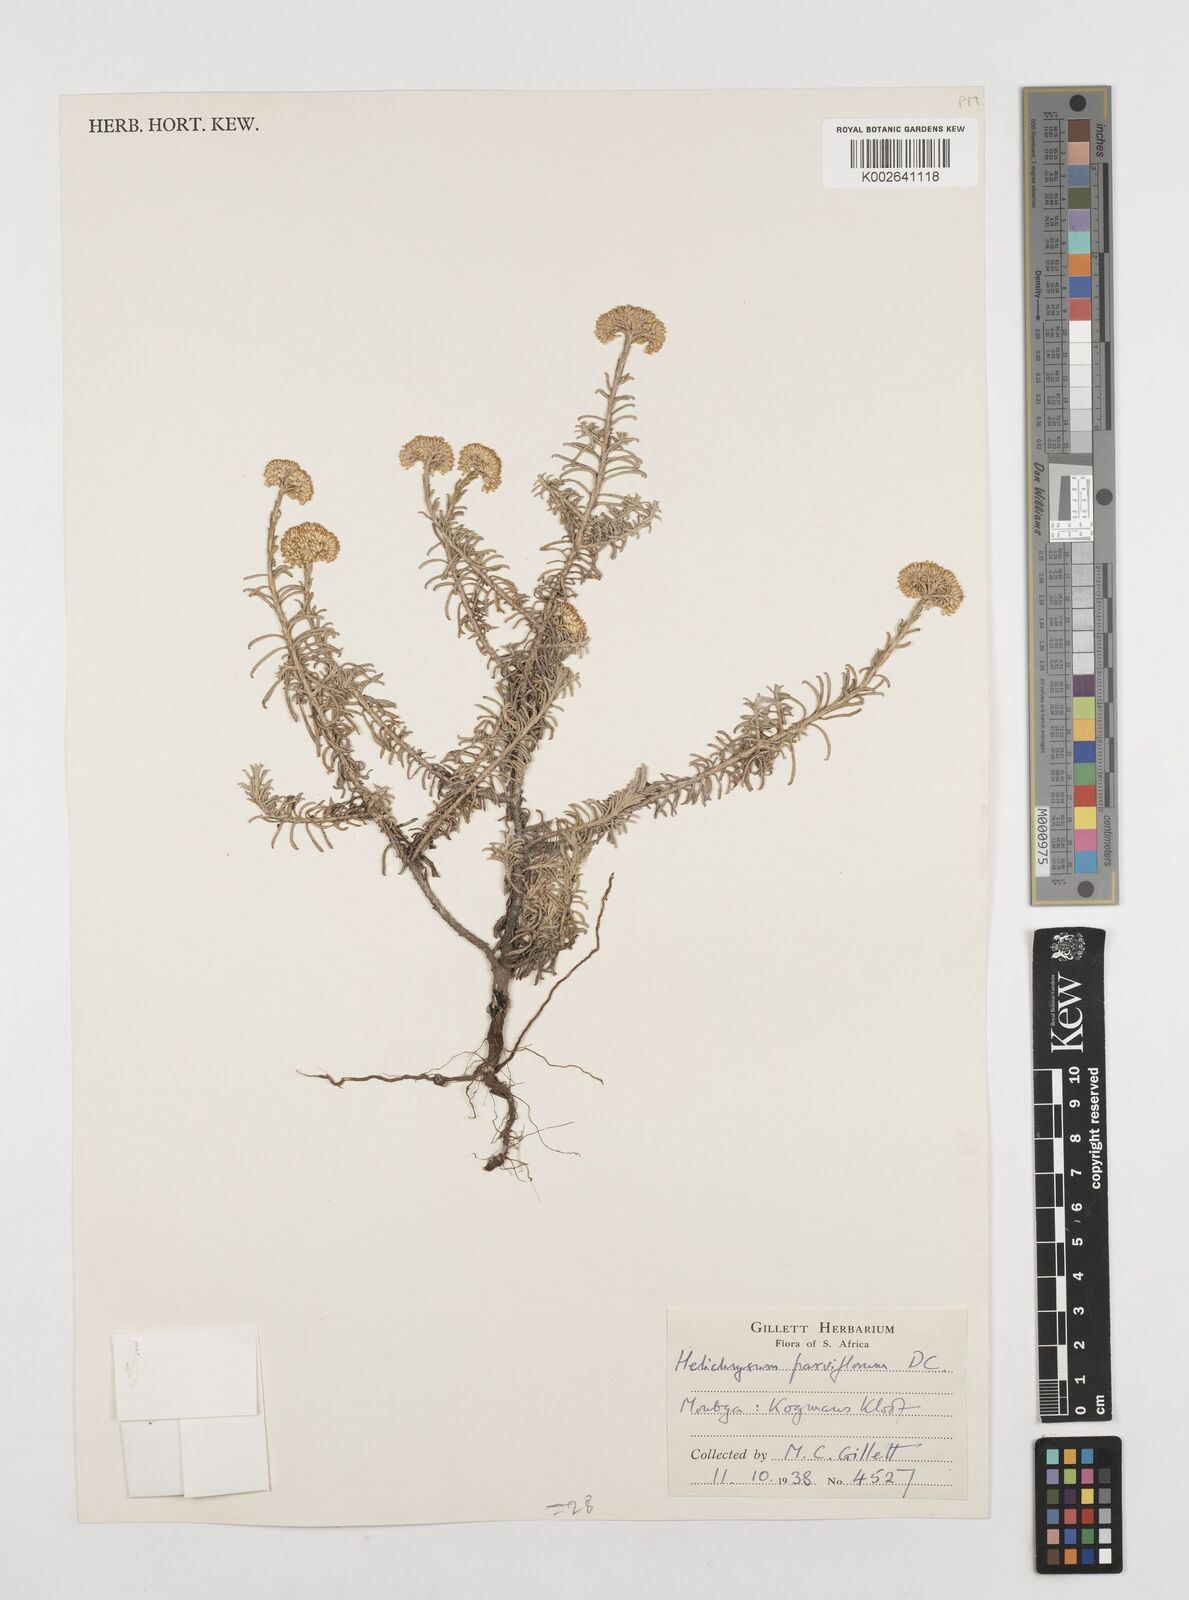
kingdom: Plantae
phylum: Tracheophyta
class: Magnoliopsida
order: Asterales
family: Asteraceae
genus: Helichrysum
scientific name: Helichrysum rutilans
